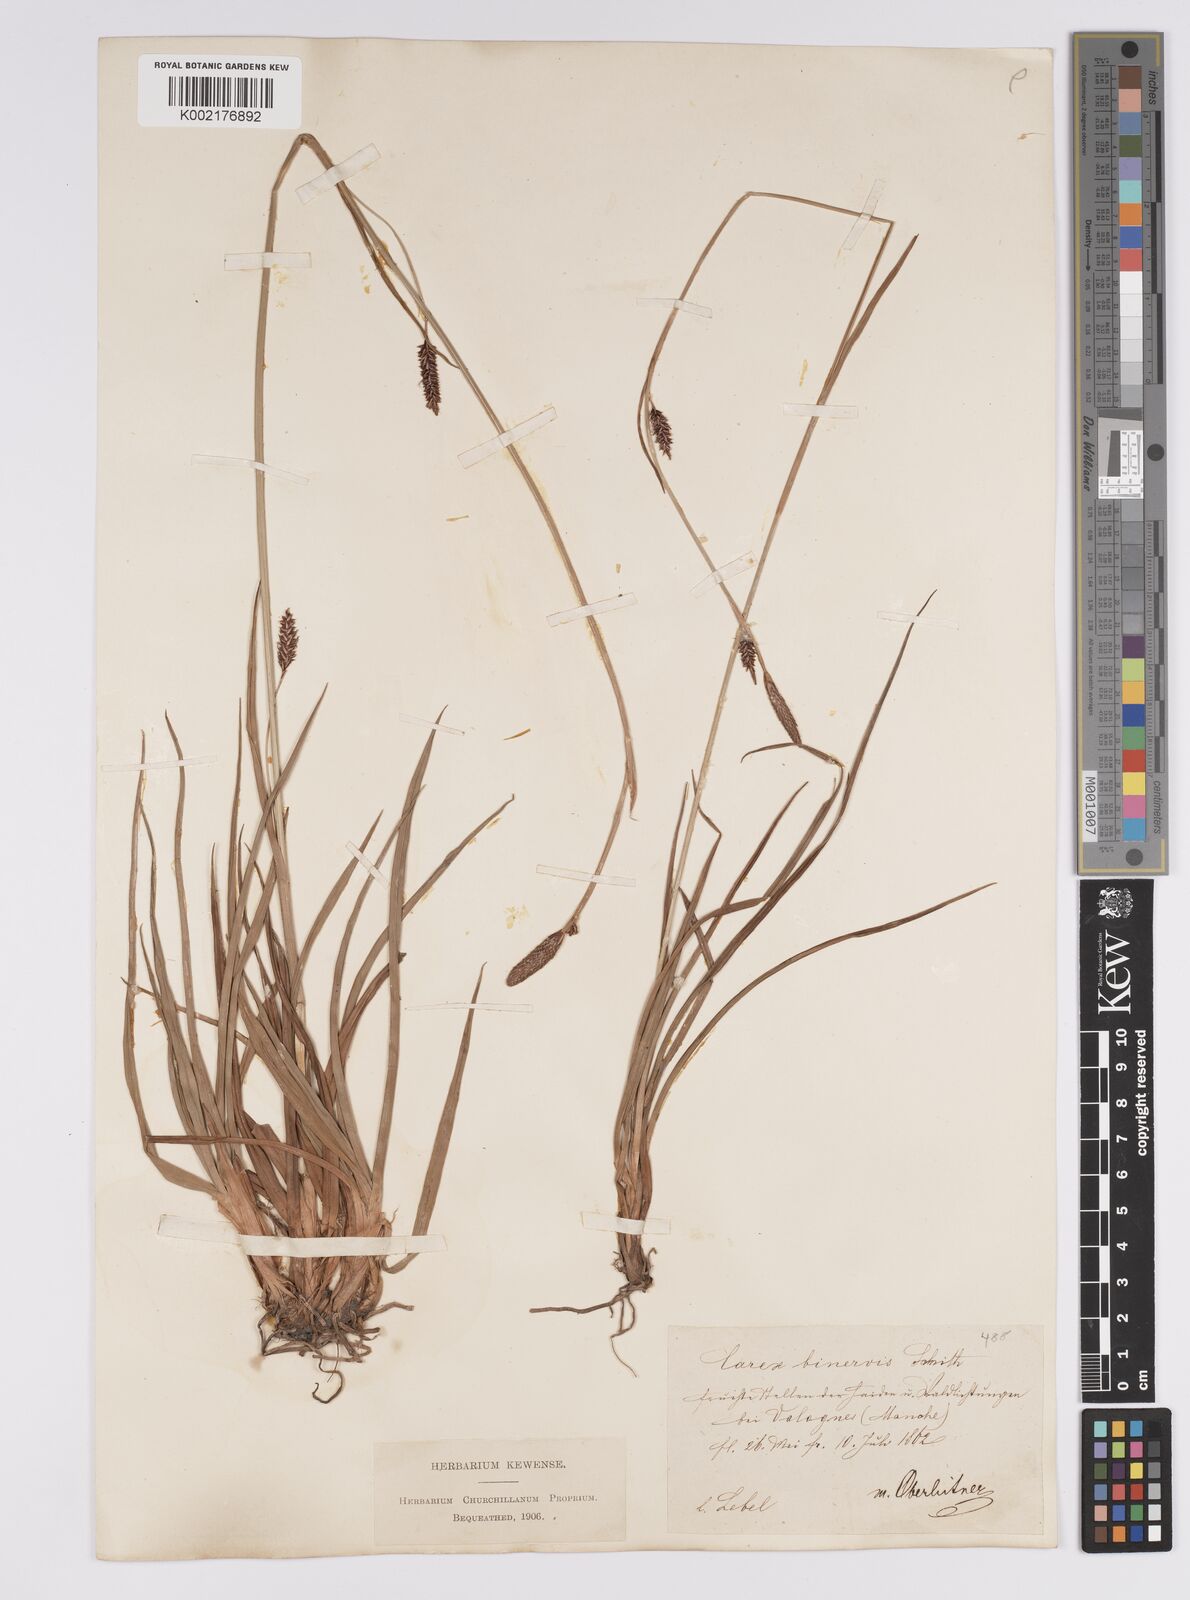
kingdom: Plantae
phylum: Tracheophyta
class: Liliopsida
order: Poales
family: Cyperaceae
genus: Carex
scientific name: Carex binervis
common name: Green-ribbed sedge
